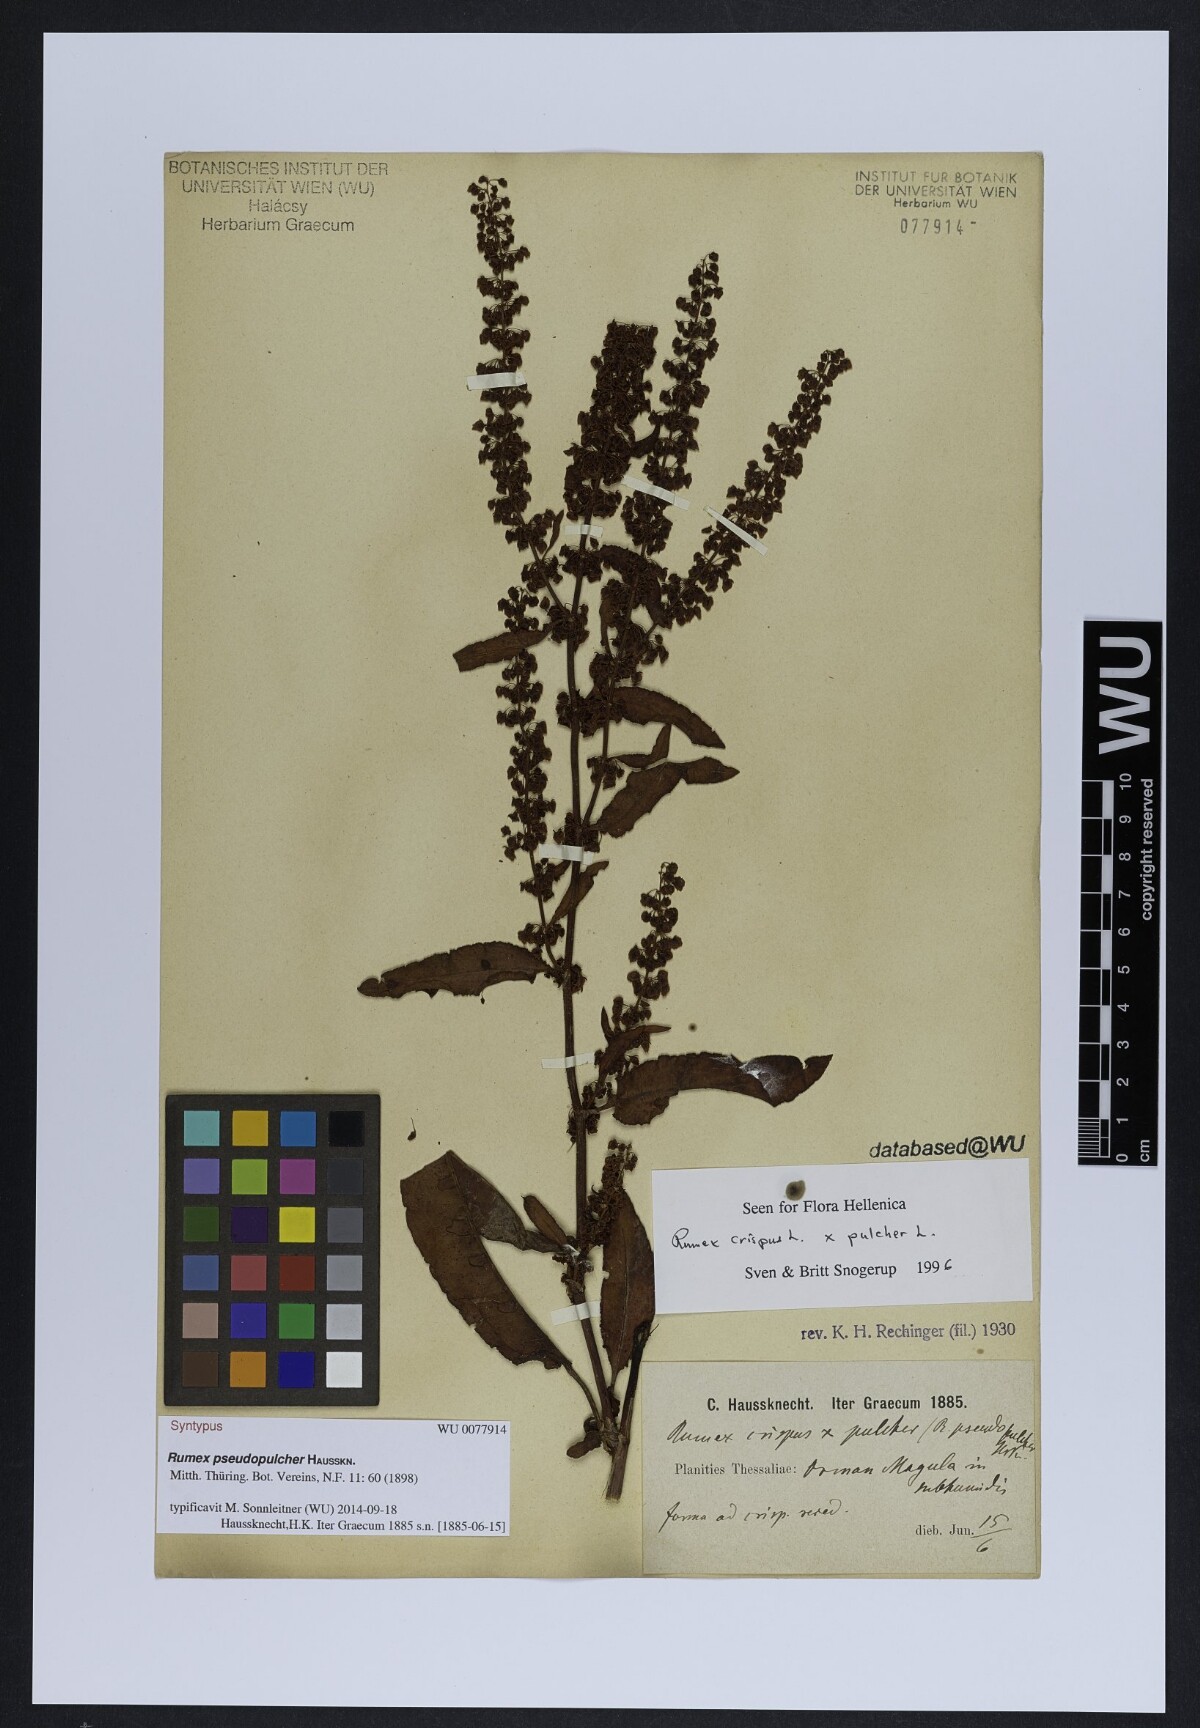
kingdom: Plantae
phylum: Tracheophyta
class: Magnoliopsida
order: Caryophyllales
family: Polygonaceae
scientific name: Polygonaceae
